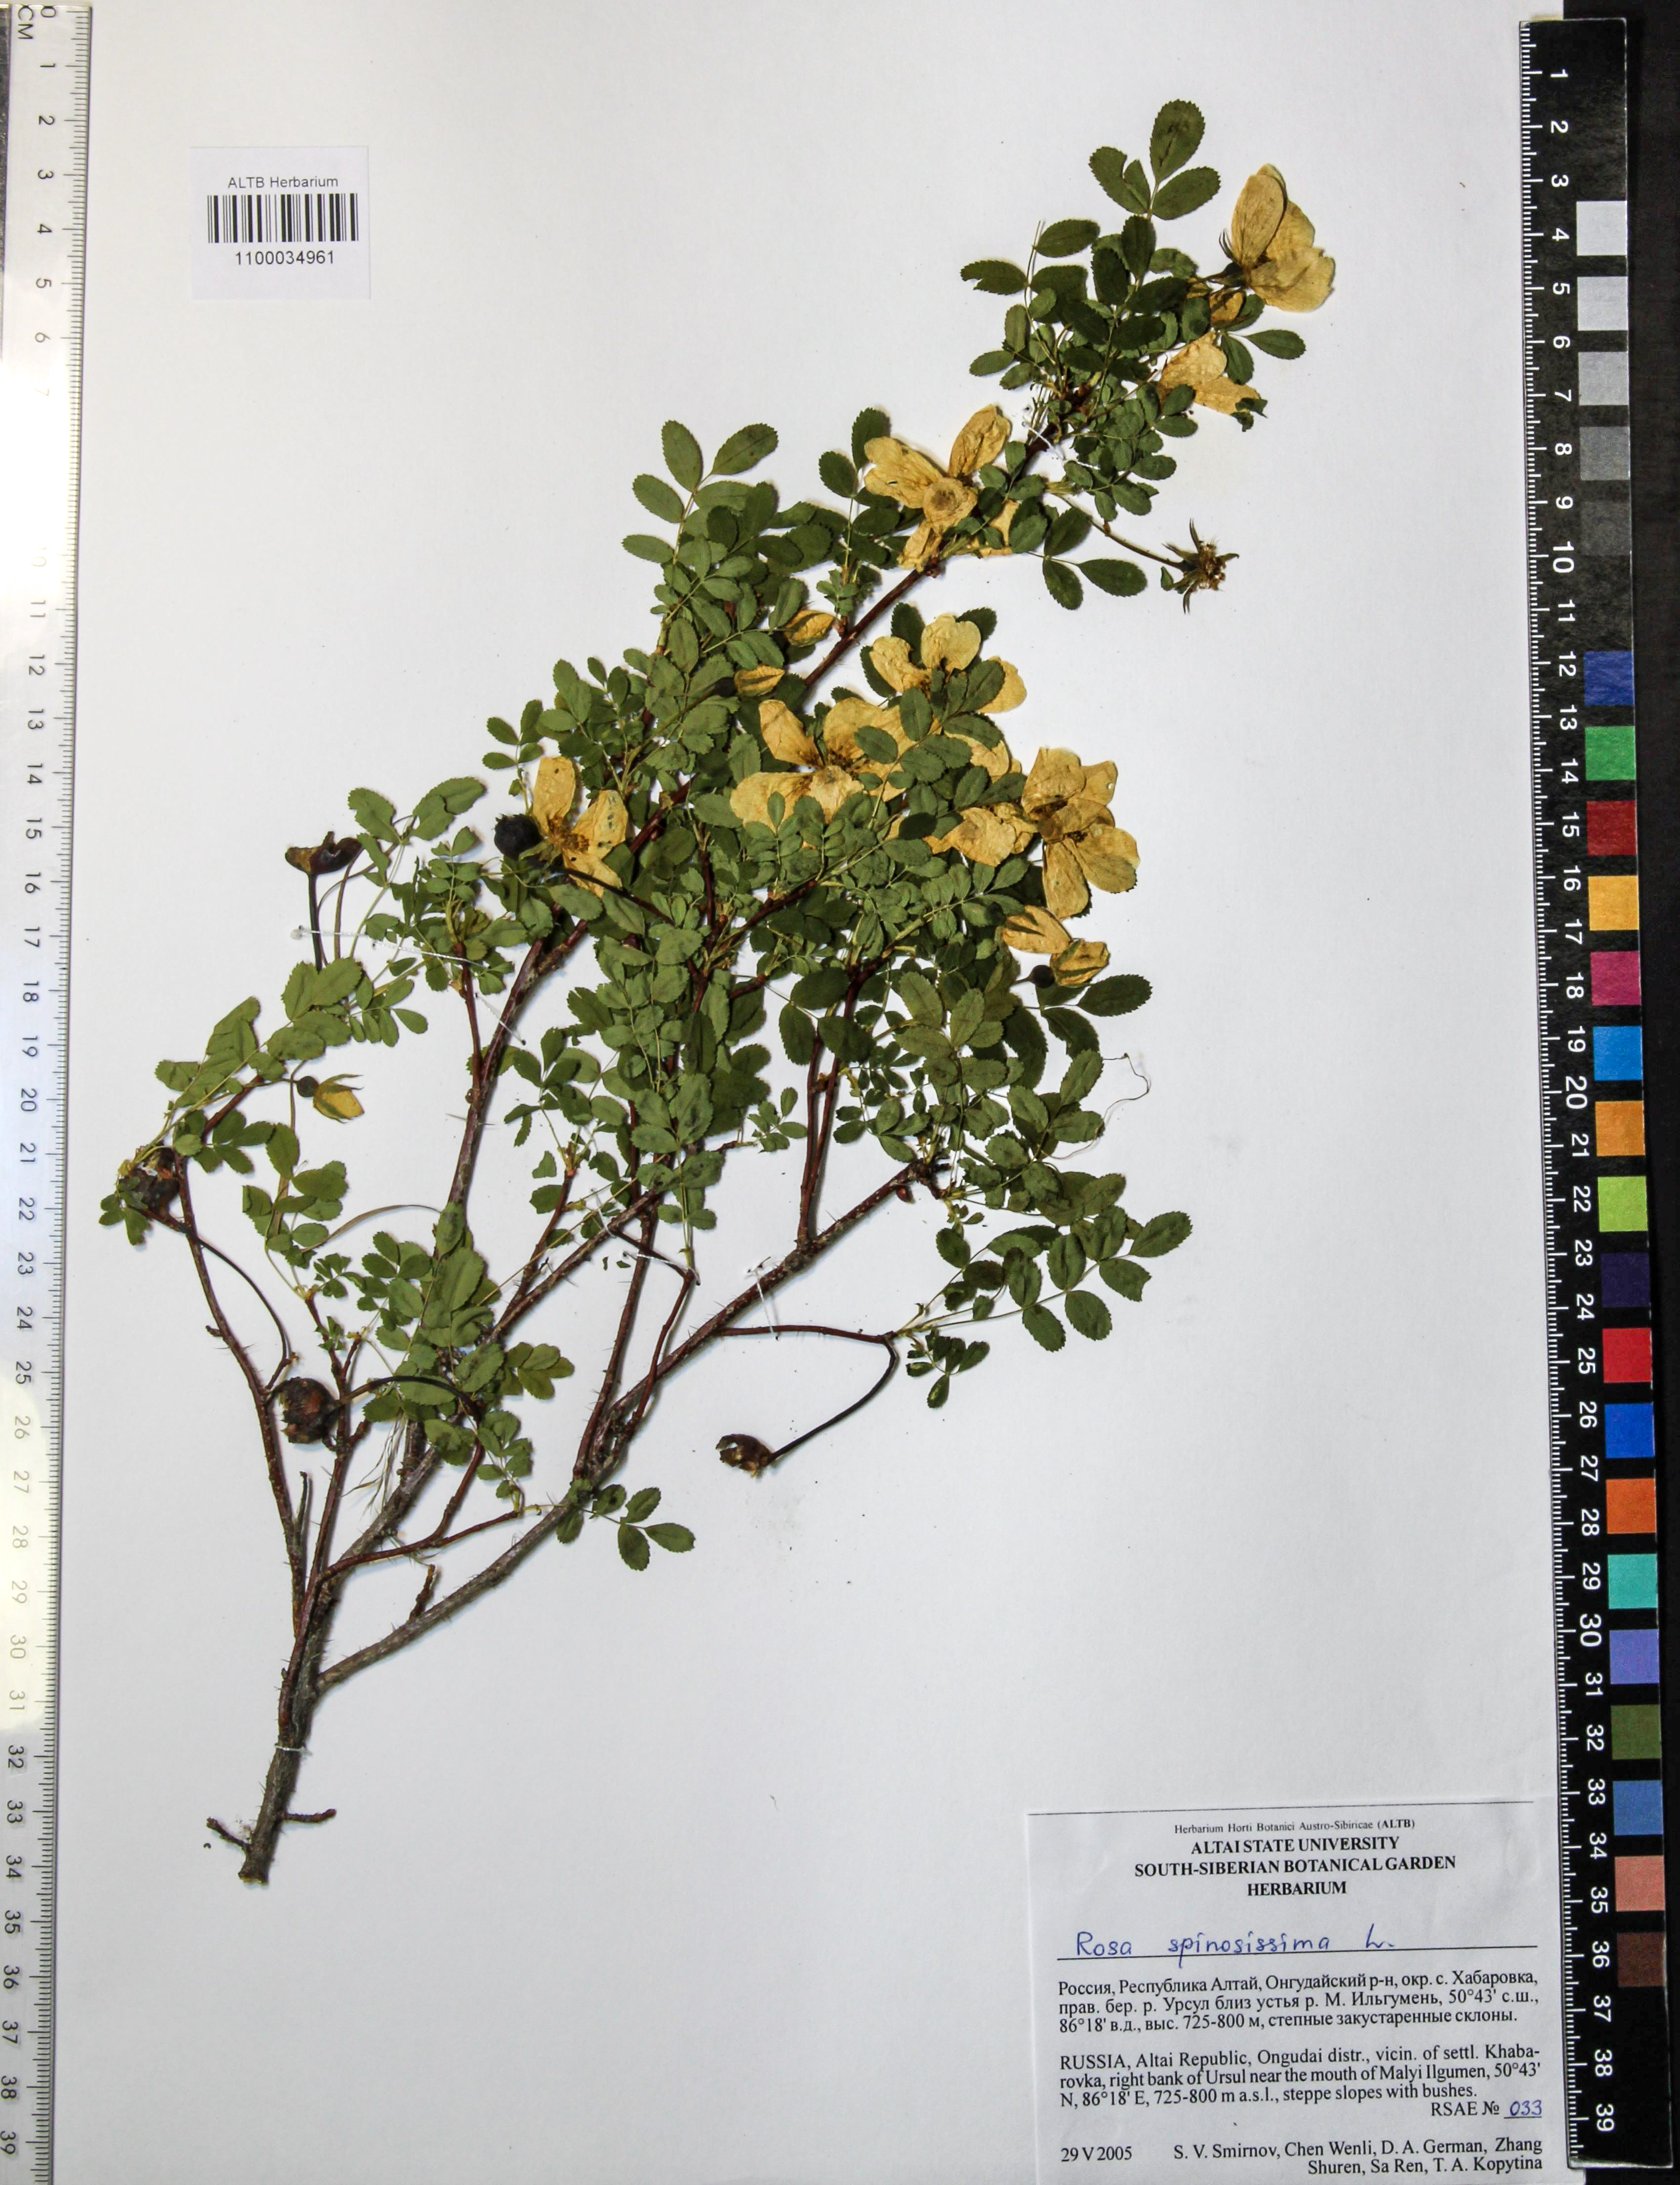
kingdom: Plantae
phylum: Tracheophyta
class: Magnoliopsida
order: Rosales
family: Rosaceae
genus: Rosa
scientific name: Rosa spinosissima
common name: Burnet rose
